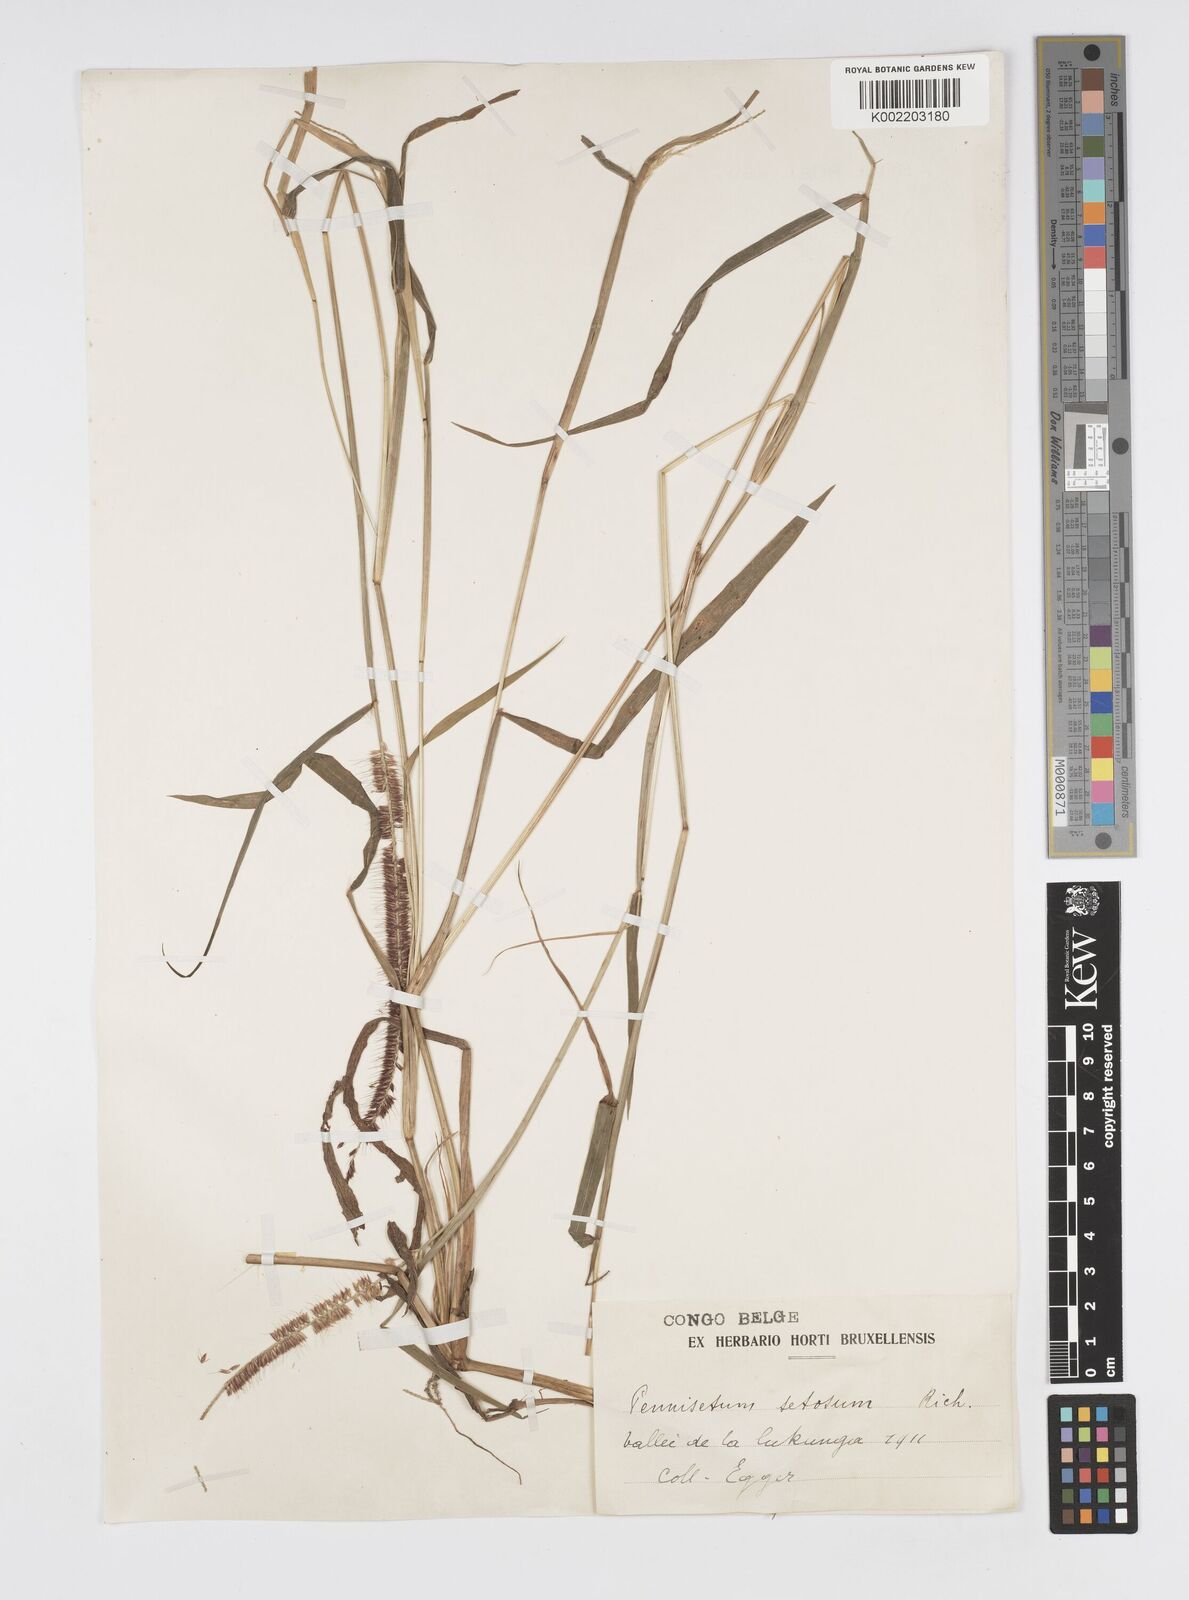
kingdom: Plantae
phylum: Tracheophyta
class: Liliopsida
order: Poales
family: Poaceae
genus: Cenchrus
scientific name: Cenchrus hordeoides
